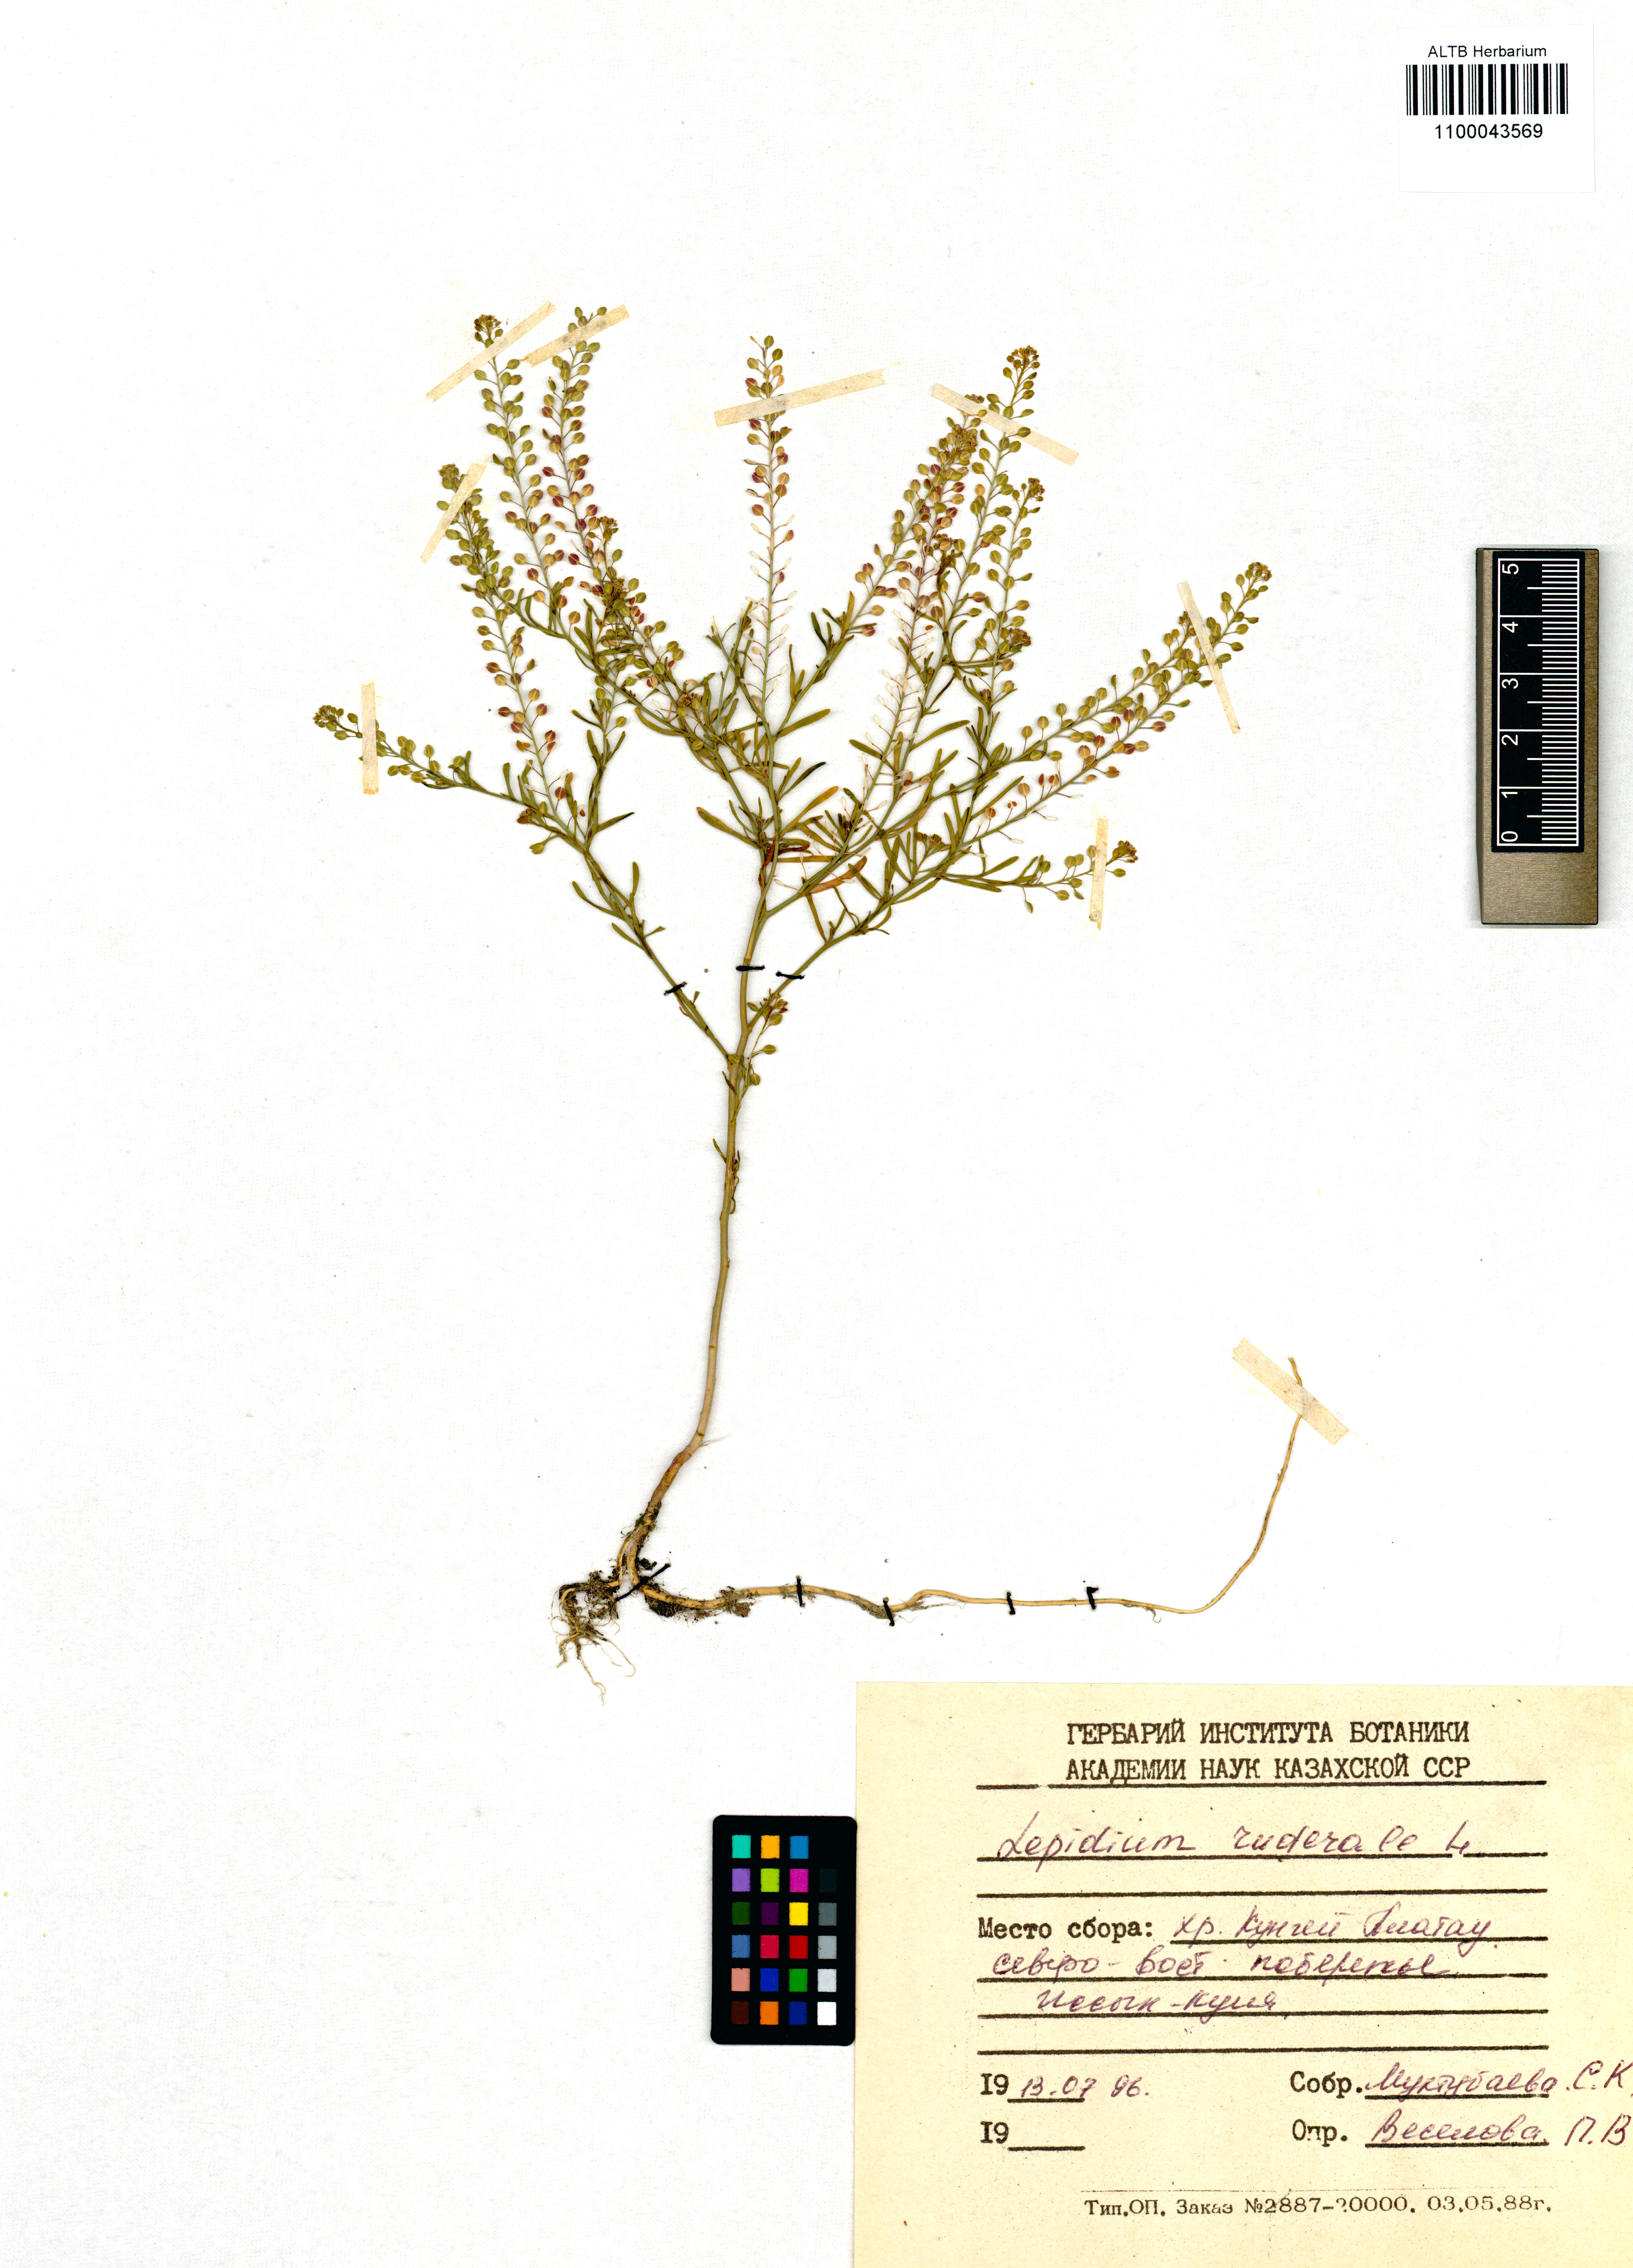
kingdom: Plantae
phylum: Tracheophyta
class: Magnoliopsida
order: Brassicales
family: Brassicaceae
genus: Lepidium
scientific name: Lepidium ruderale
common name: Narrow-leaved pepperwort
